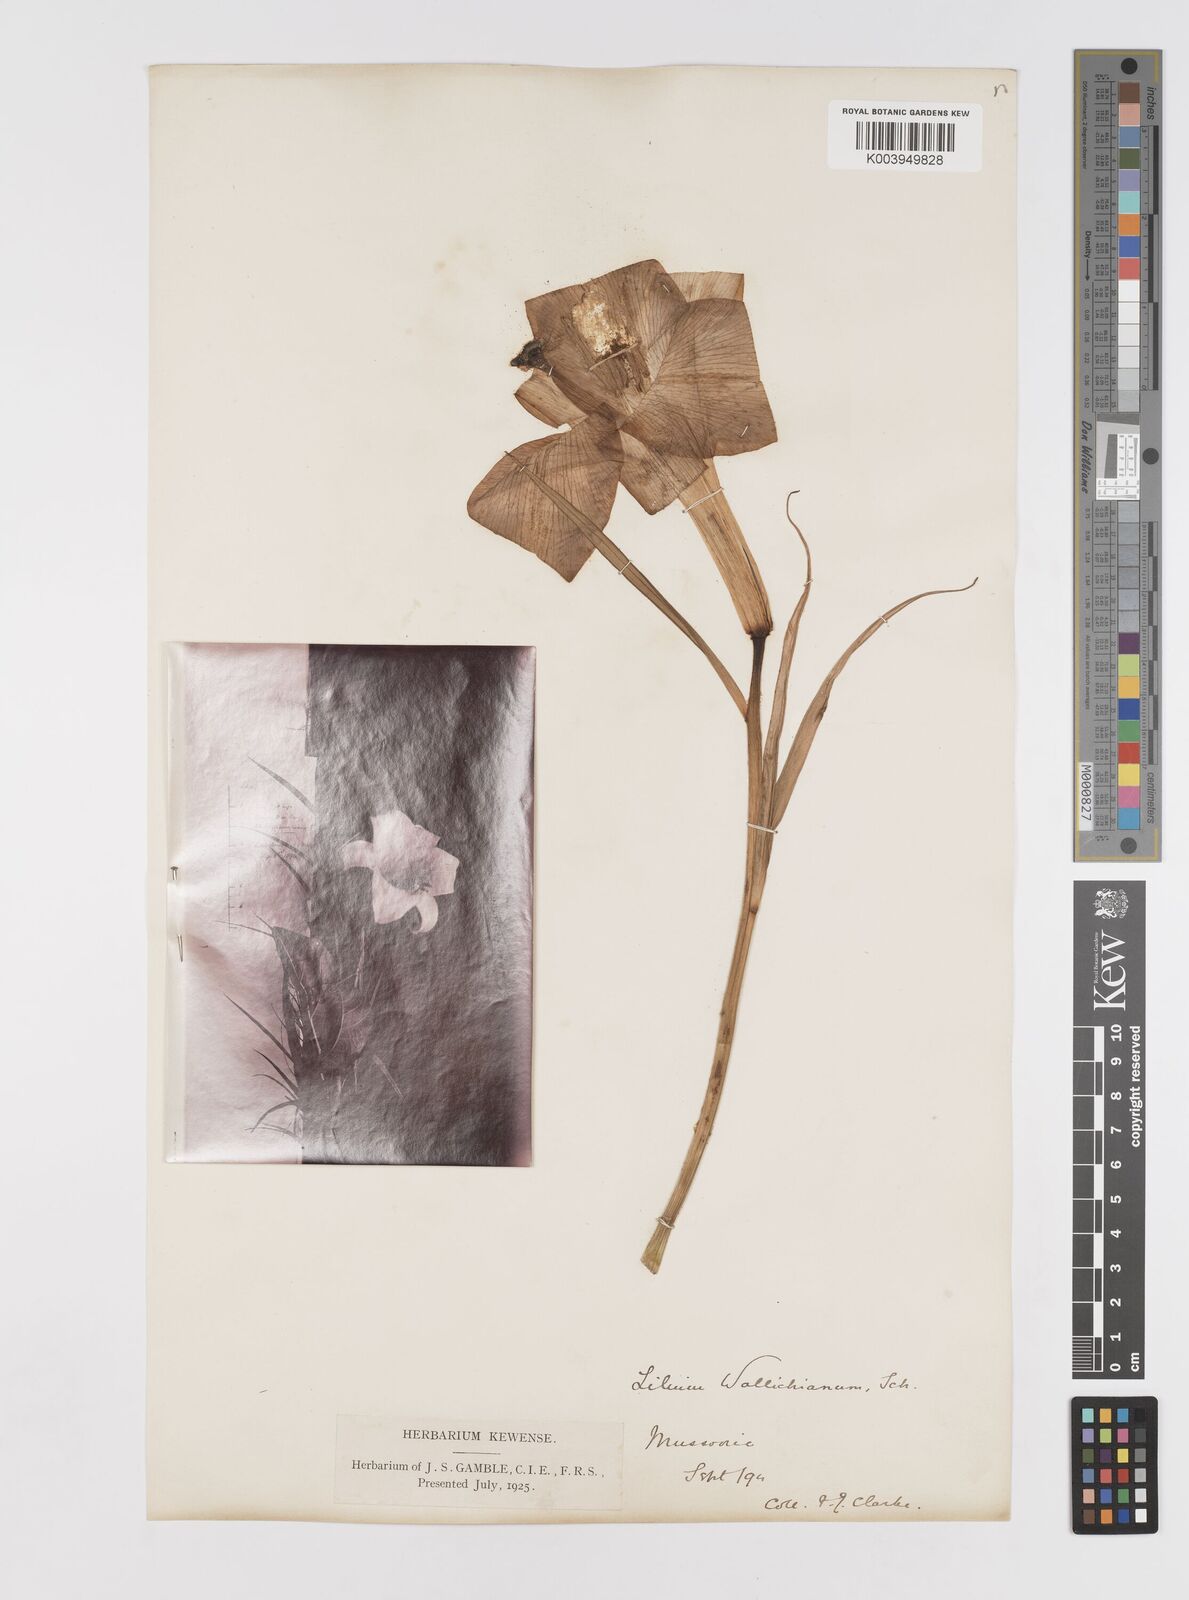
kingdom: Plantae
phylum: Tracheophyta
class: Liliopsida
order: Liliales
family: Liliaceae
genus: Lilium
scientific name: Lilium wallichianum
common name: Wallich's lily
